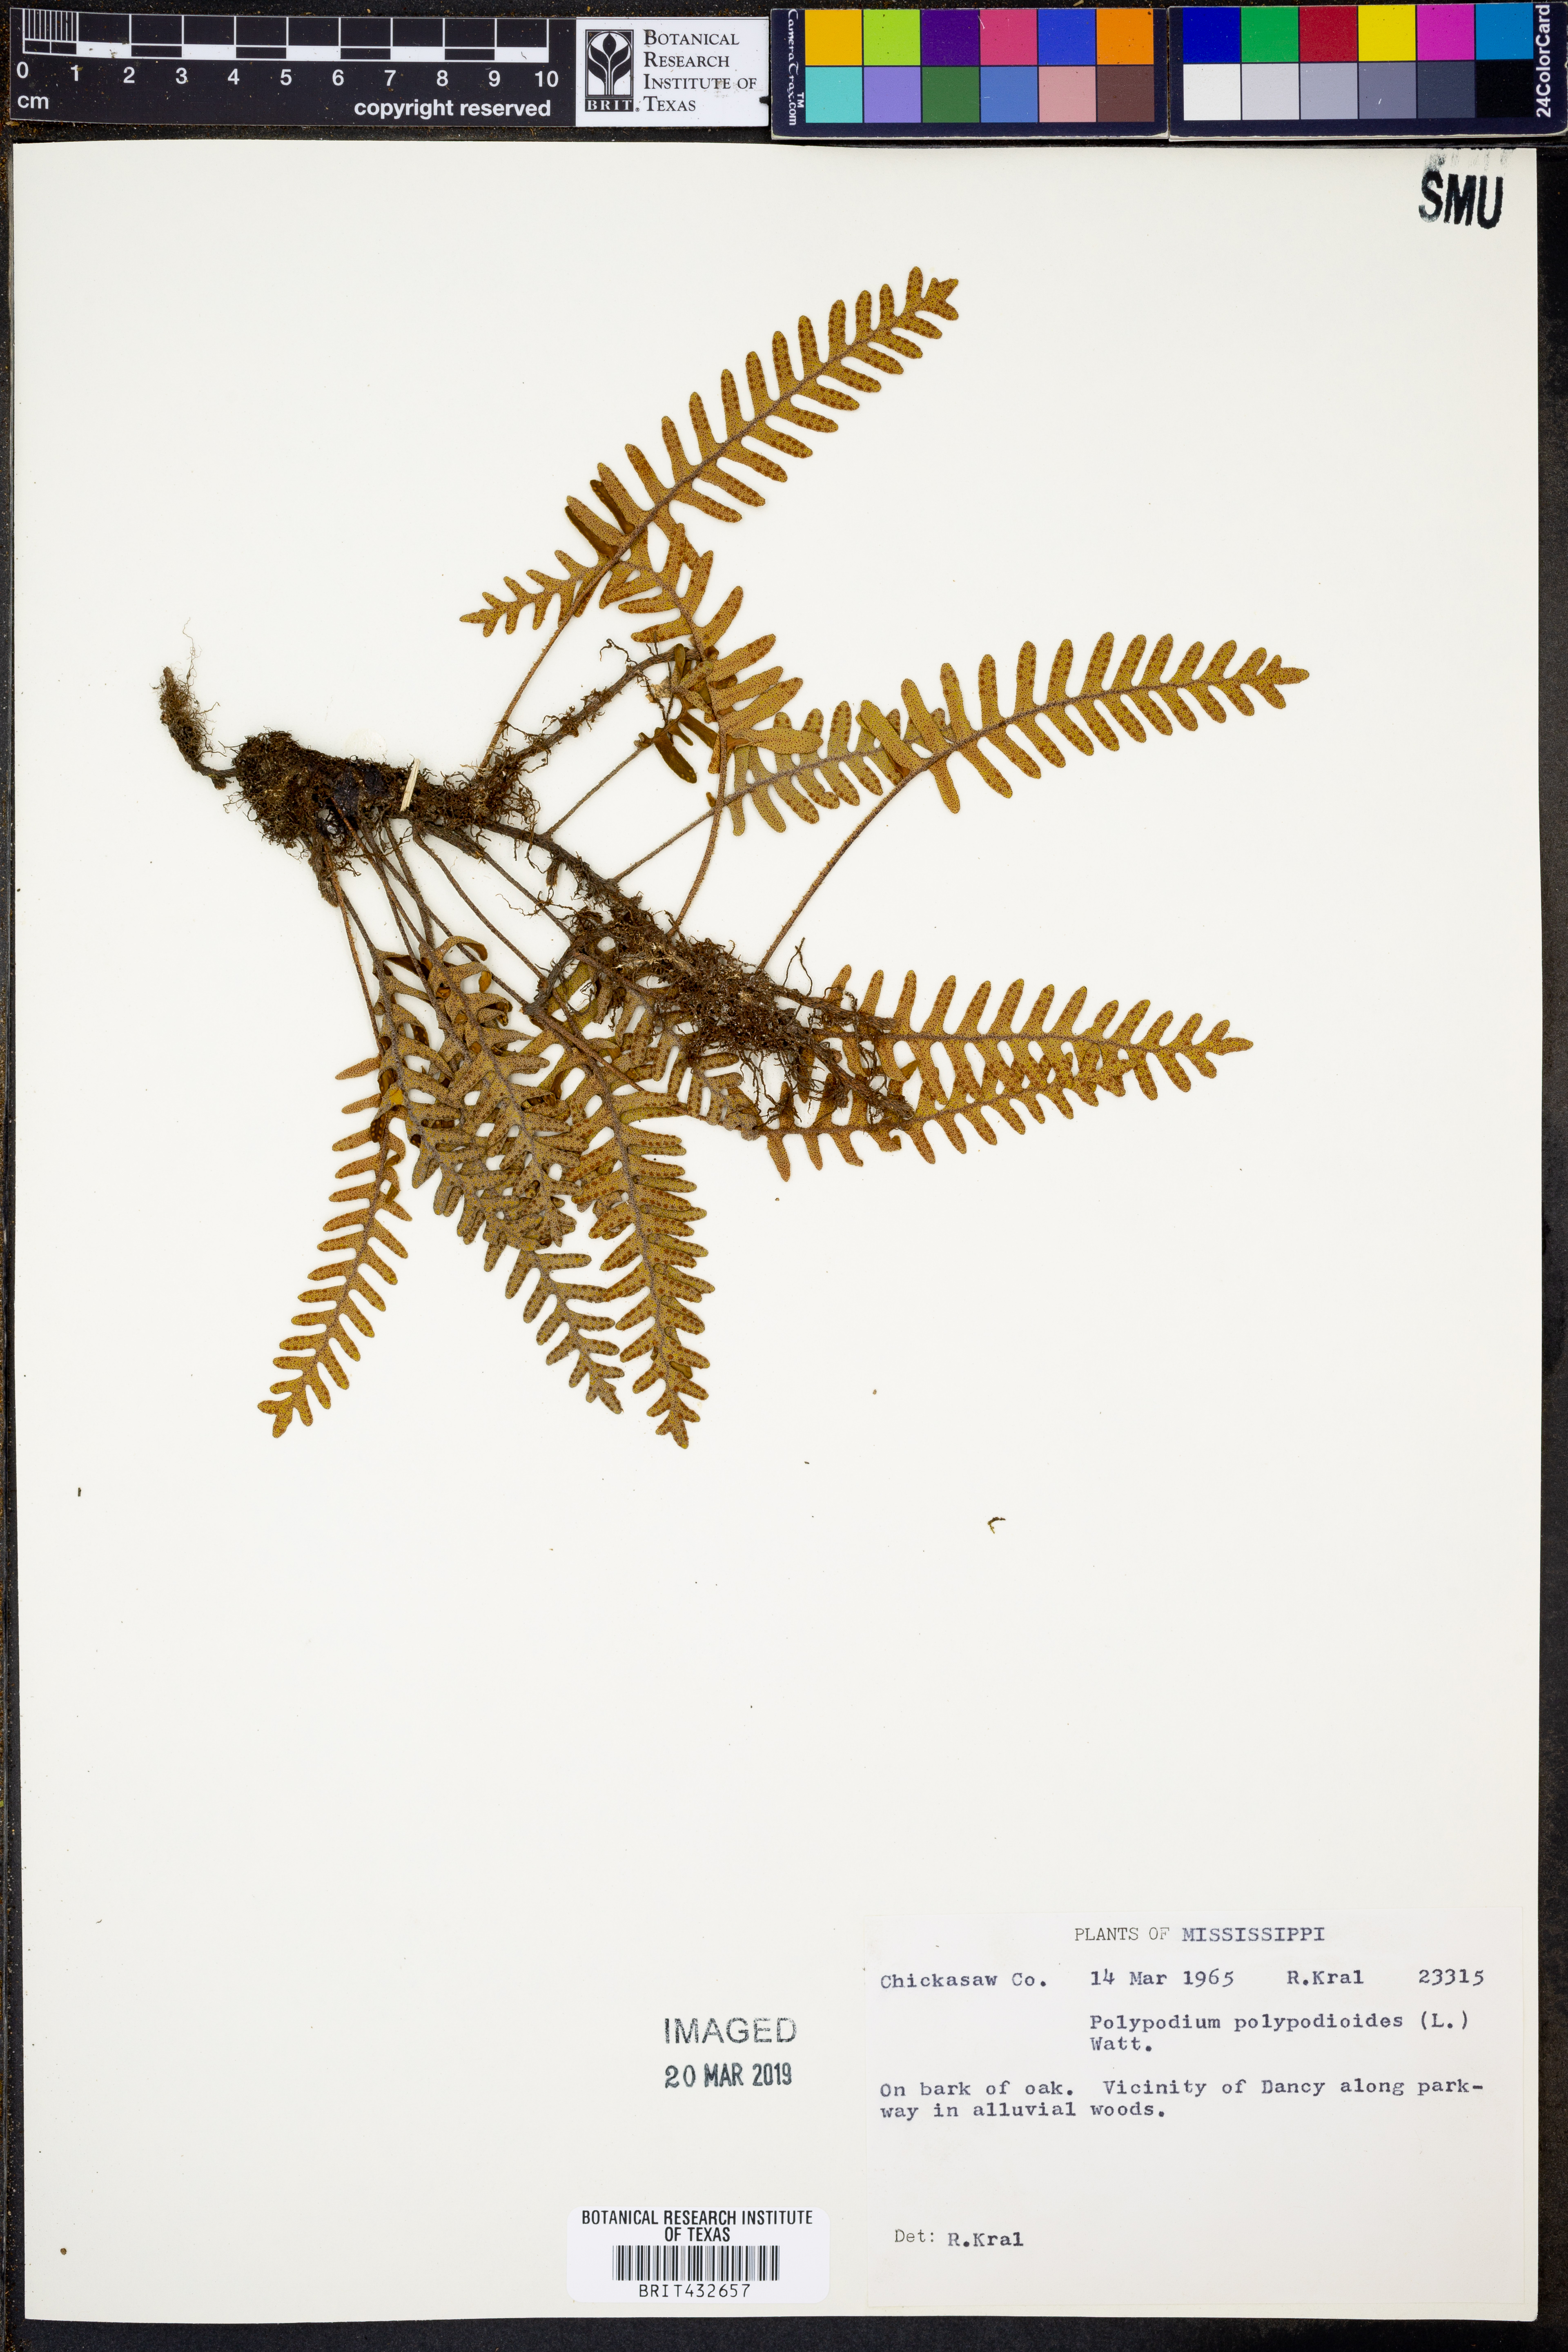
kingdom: Plantae
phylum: Tracheophyta
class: Polypodiopsida
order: Polypodiales
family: Polypodiaceae
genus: Pleopeltis
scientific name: Pleopeltis polypodioides
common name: Resurrection fern
